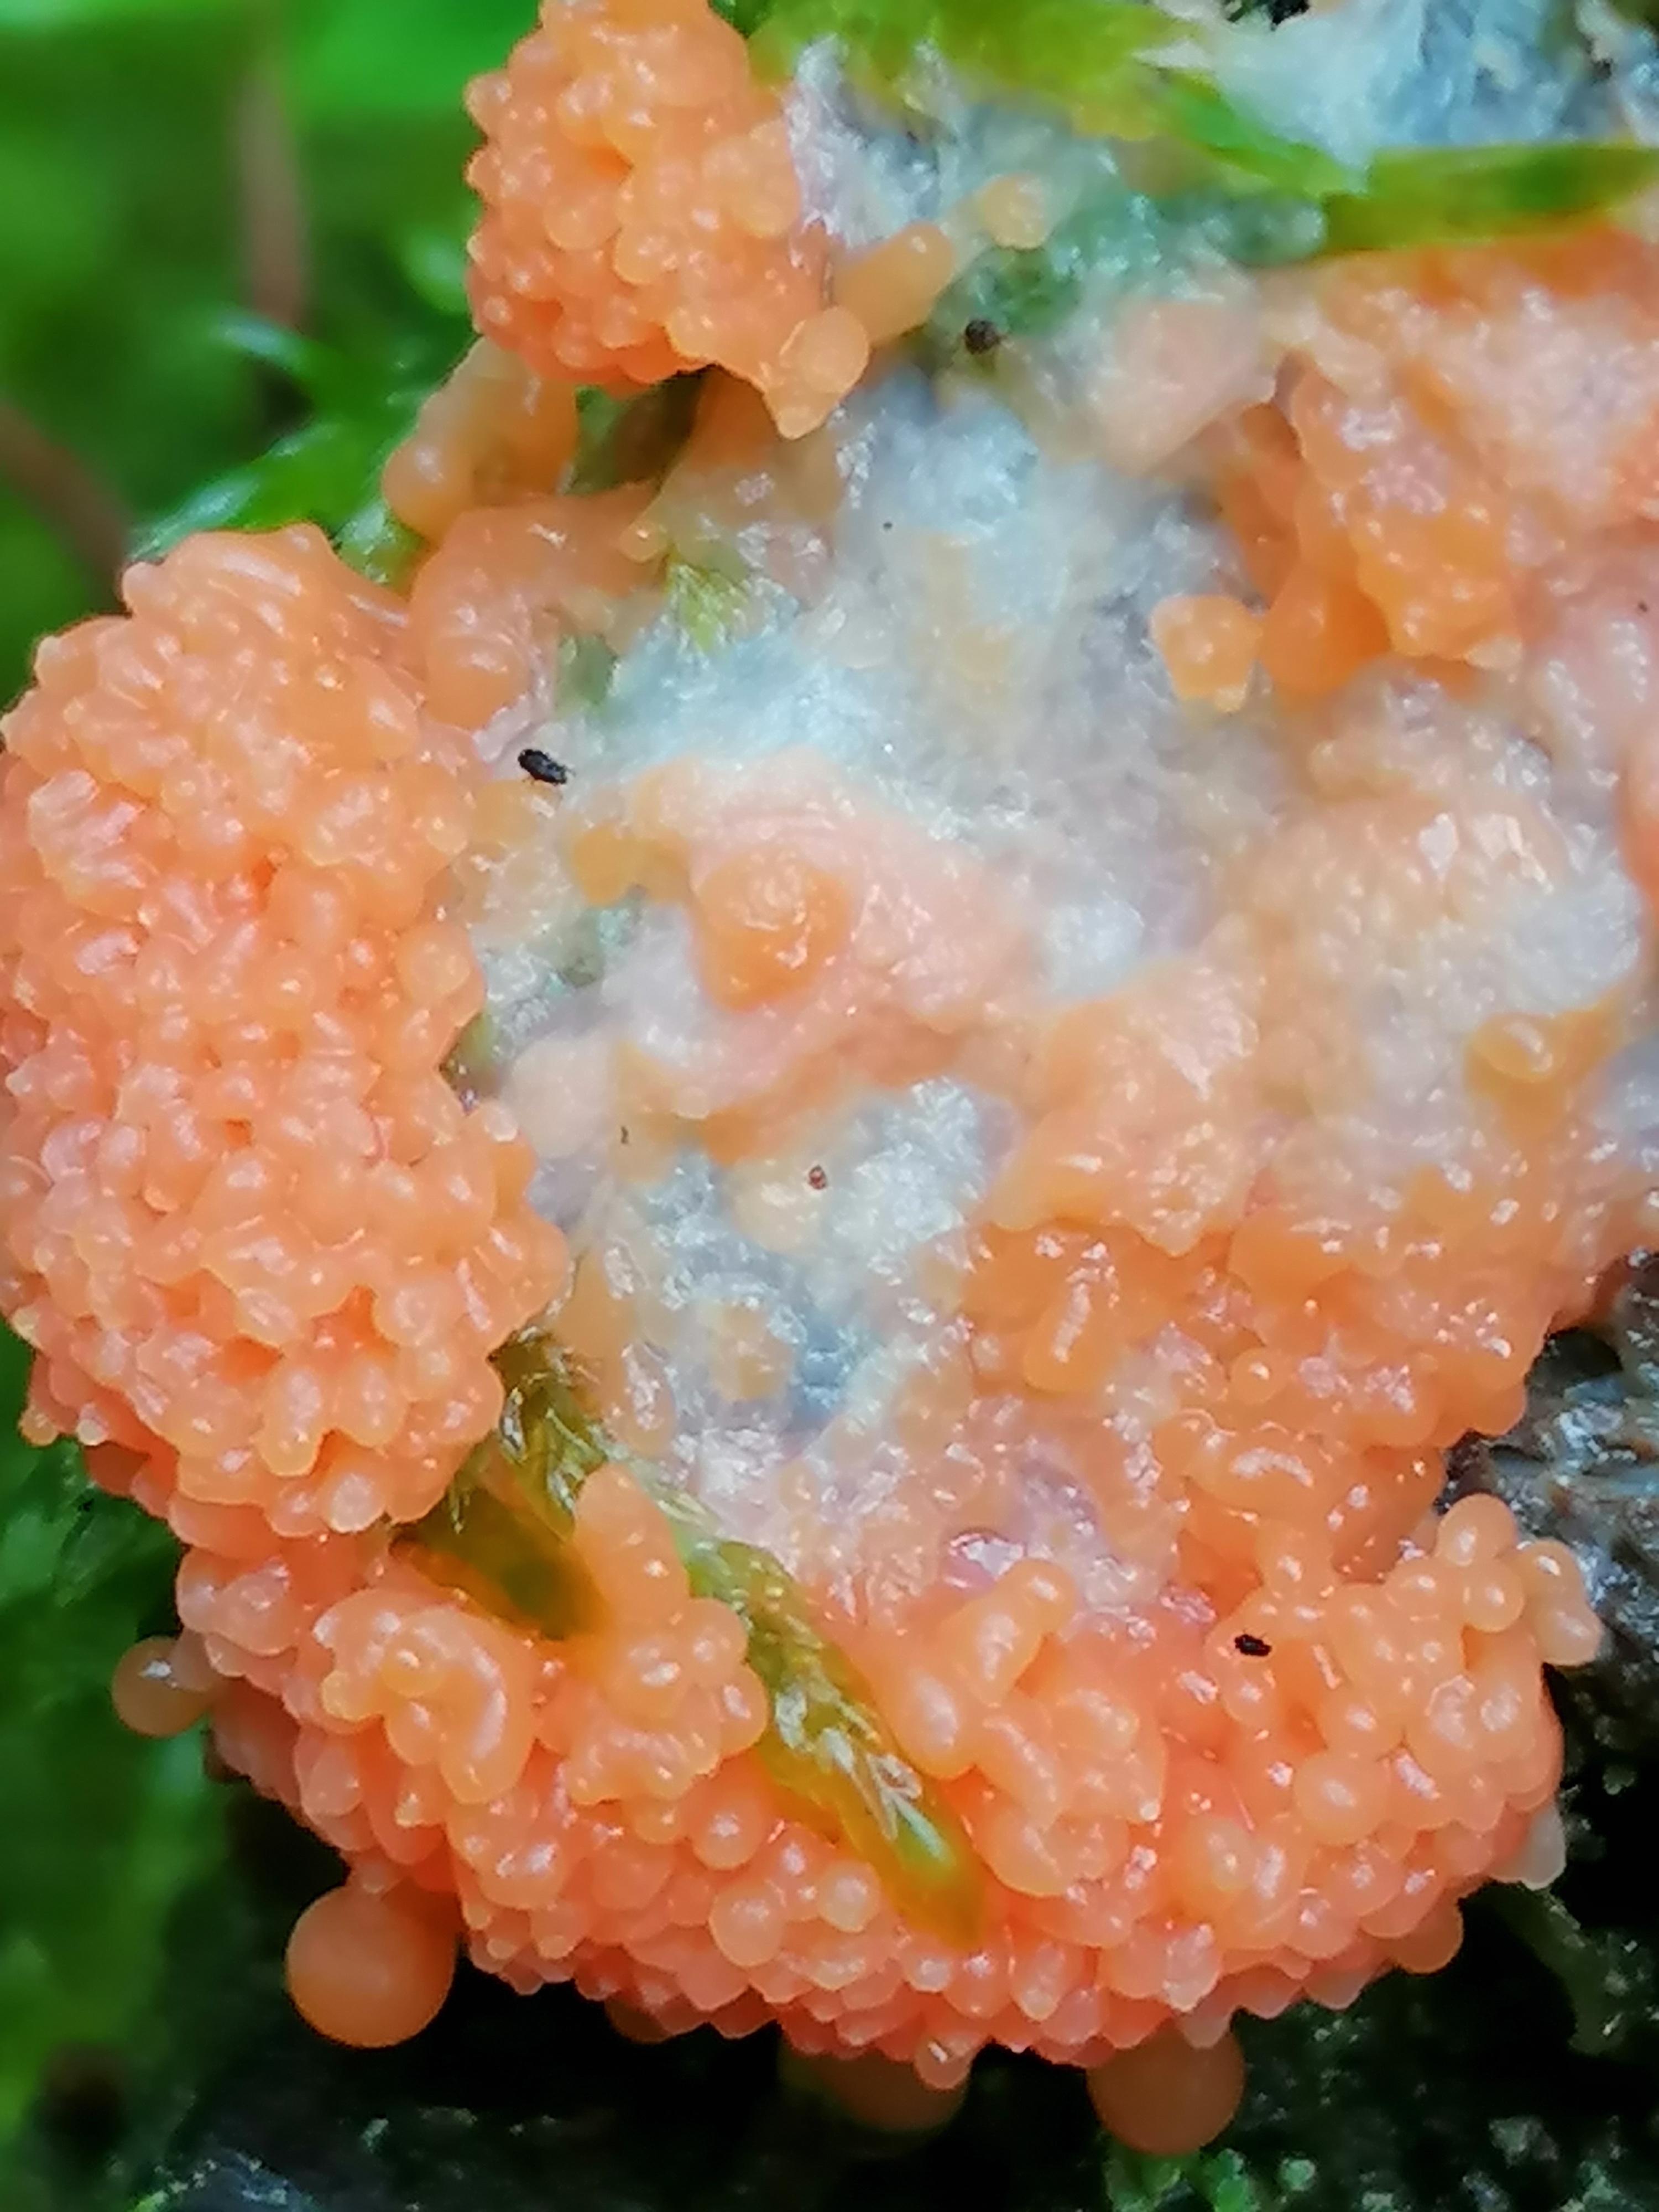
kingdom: Protozoa
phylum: Mycetozoa
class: Myxomycetes
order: Cribrariales
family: Tubiferaceae
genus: Tubifera
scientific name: Tubifera ferruginosa
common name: kanel-støvrør
